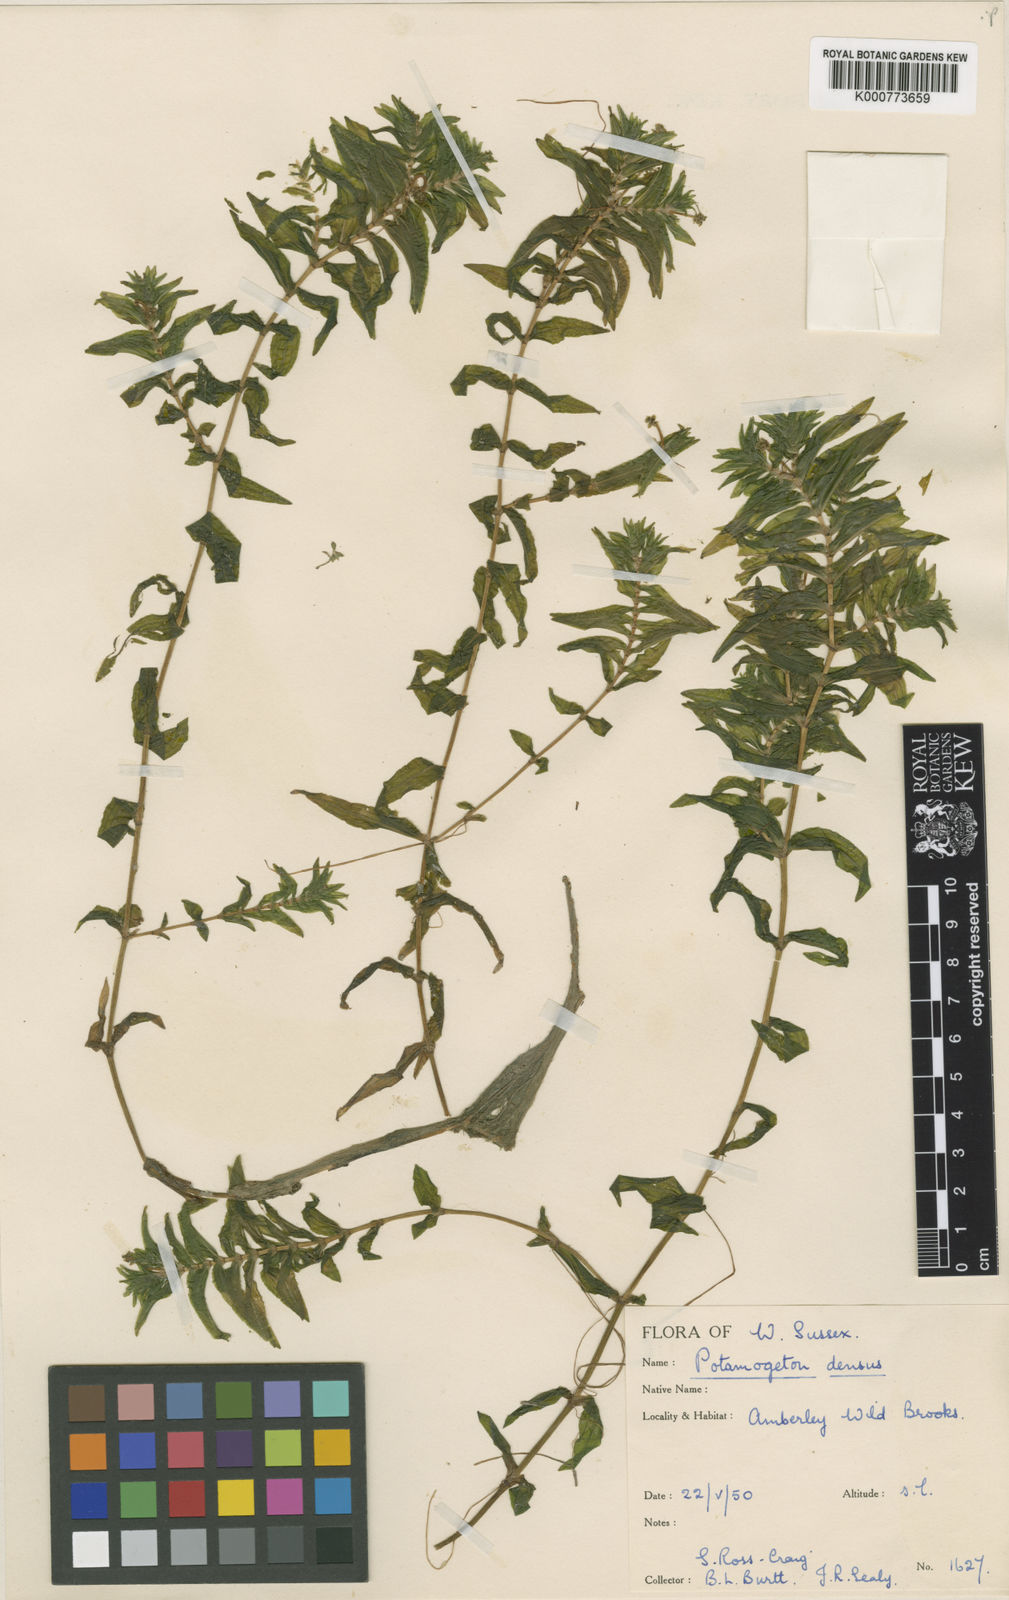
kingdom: Plantae
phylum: Tracheophyta
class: Liliopsida
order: Alismatales
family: Potamogetonaceae
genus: Groenlandia
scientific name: Groenlandia densa
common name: Opposite-leaved pondweed
